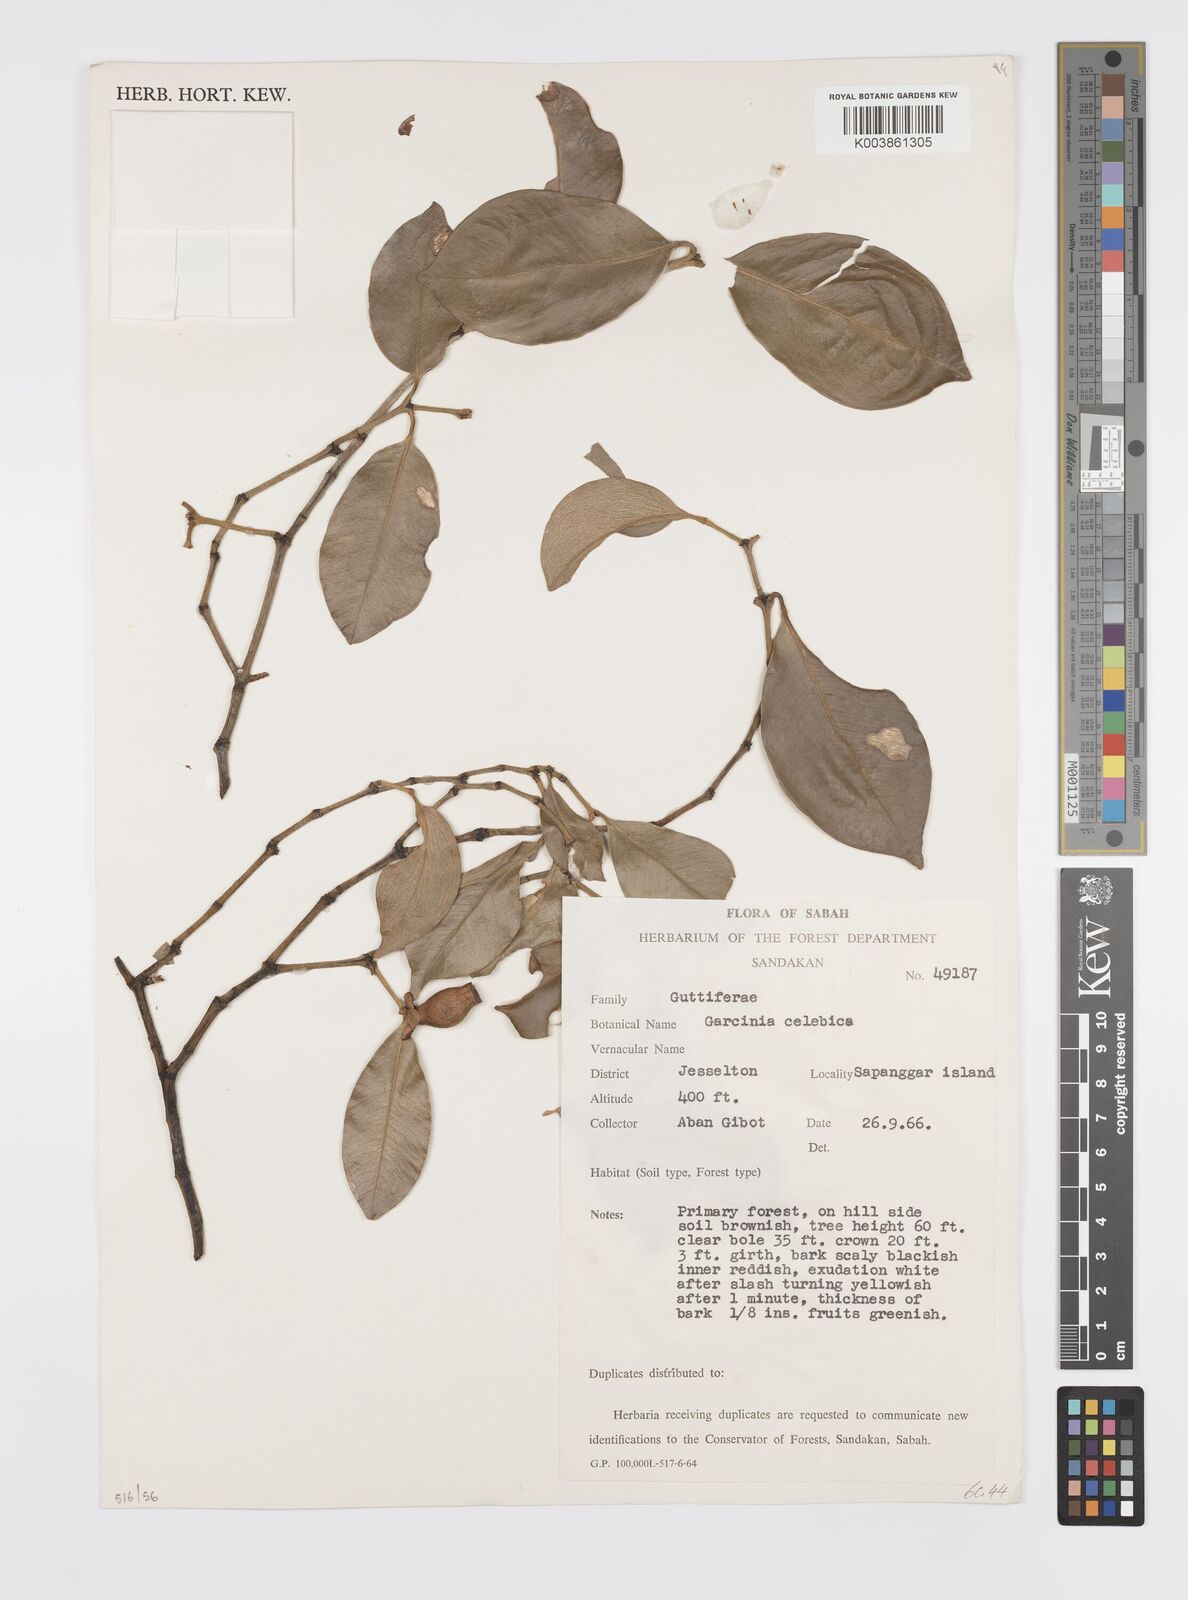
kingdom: Plantae
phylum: Tracheophyta
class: Magnoliopsida
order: Malpighiales
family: Clusiaceae
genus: Garcinia
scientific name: Garcinia sangudsangud
